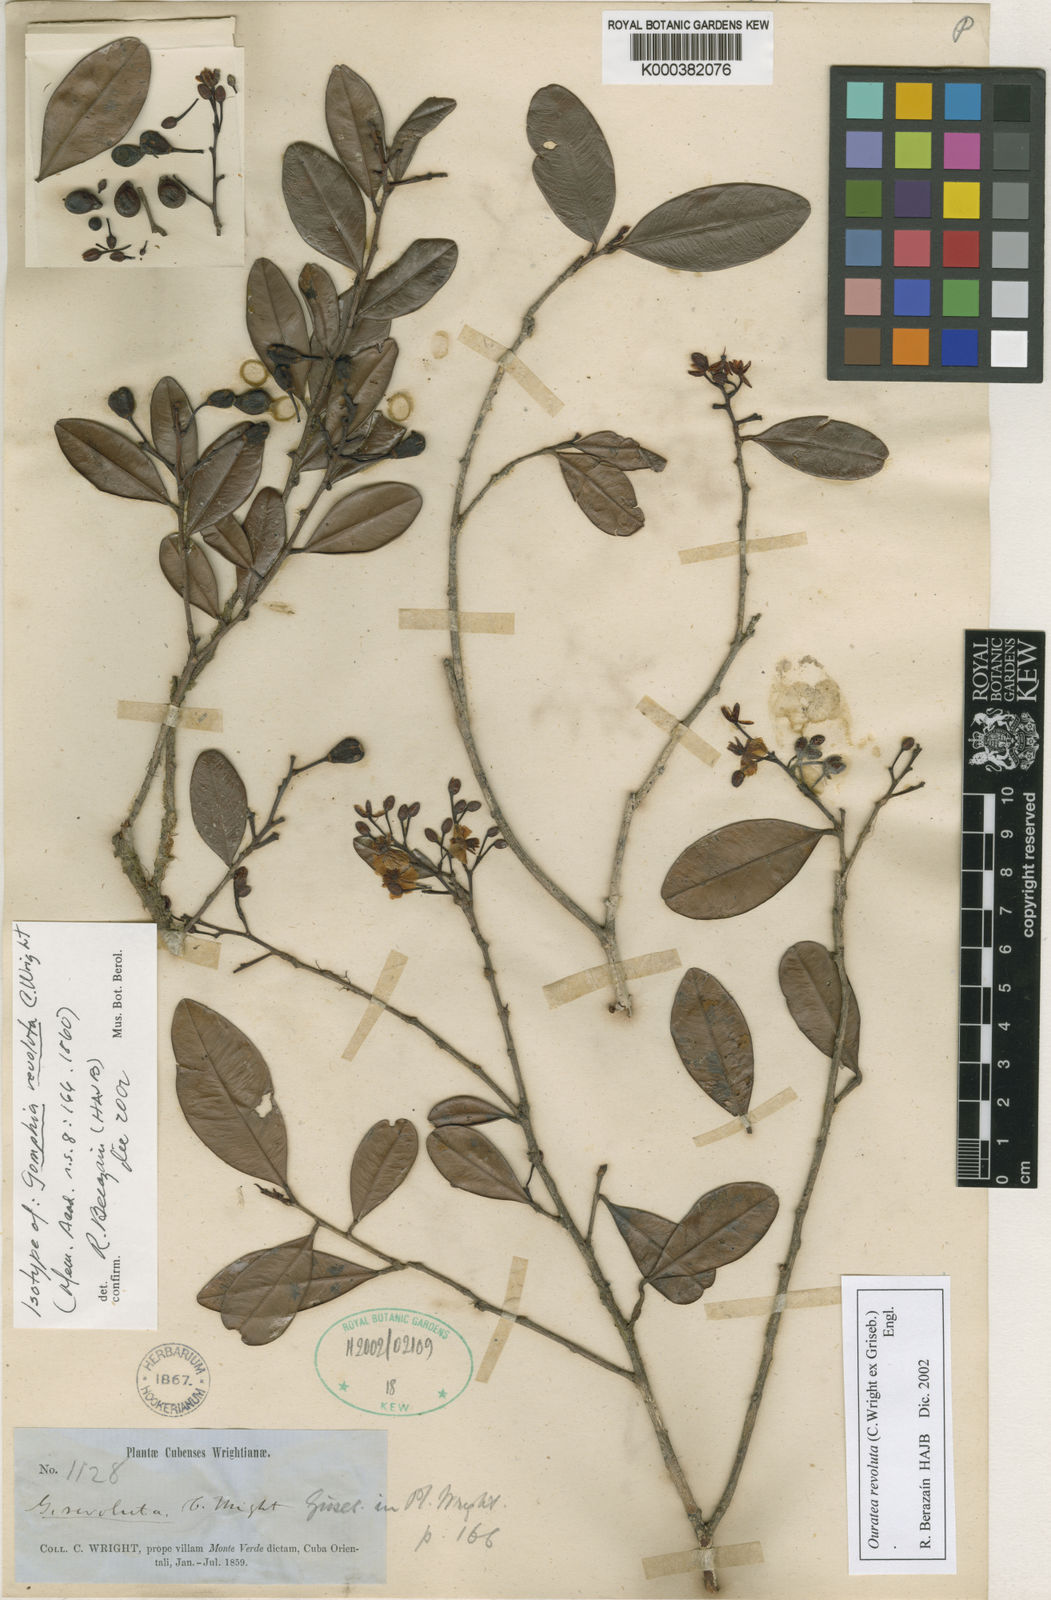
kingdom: Plantae
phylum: Tracheophyta
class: Magnoliopsida
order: Malpighiales
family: Ochnaceae
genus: Ouratea
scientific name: Ouratea revoluta
